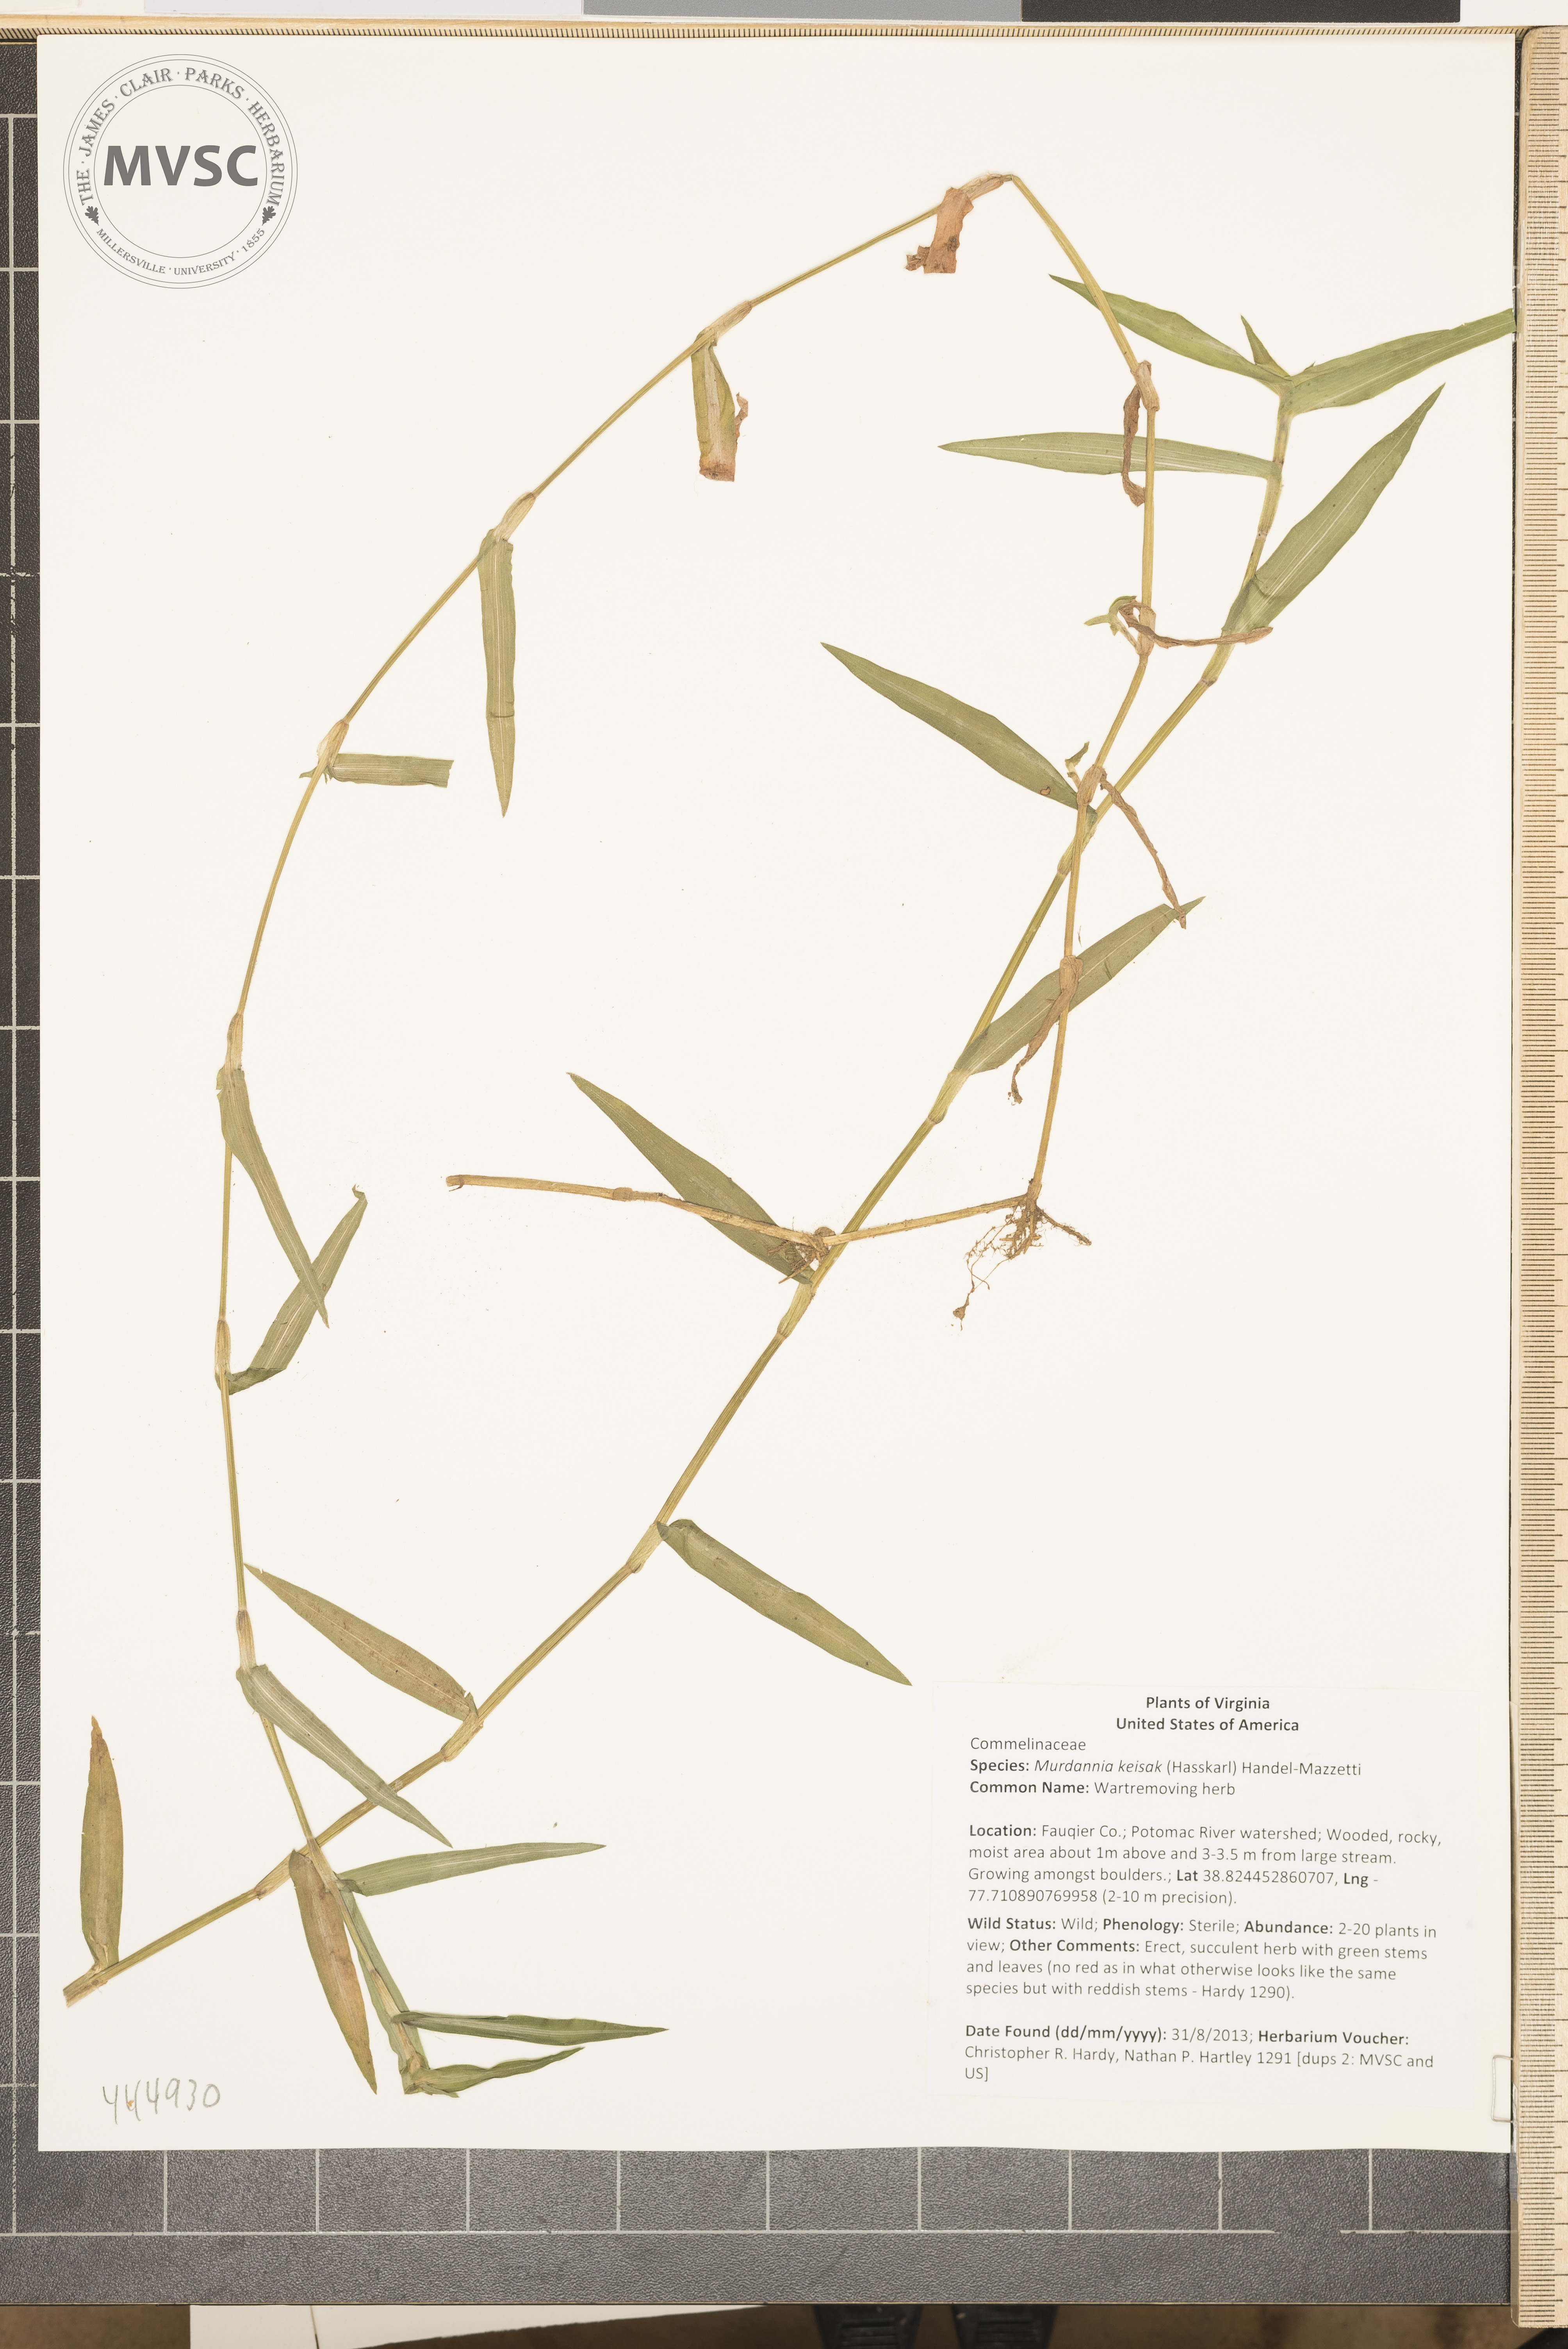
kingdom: Plantae
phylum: Tracheophyta
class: Liliopsida
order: Commelinales
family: Commelinaceae
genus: Murdannia
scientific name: Murdannia keisak
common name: Wartremoving herb
